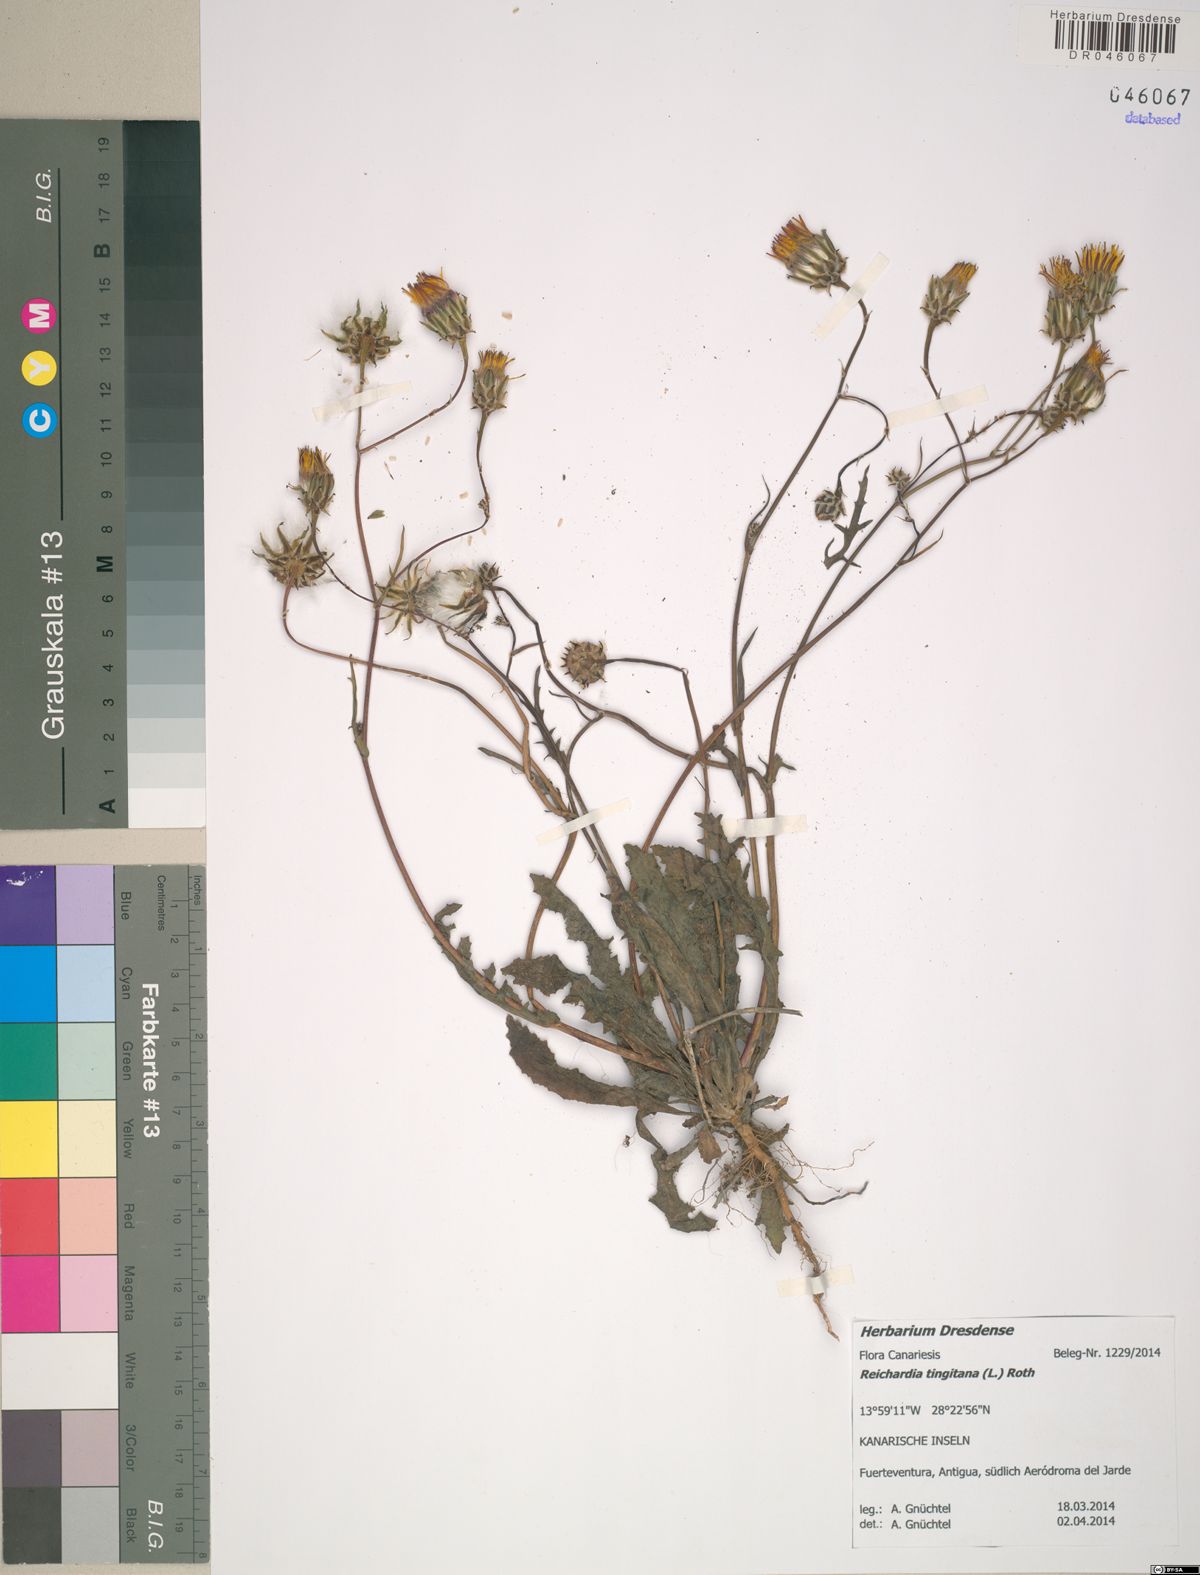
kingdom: Plantae
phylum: Tracheophyta
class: Magnoliopsida
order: Asterales
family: Asteraceae
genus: Reichardia
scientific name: Reichardia tingitana
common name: Reichardia
